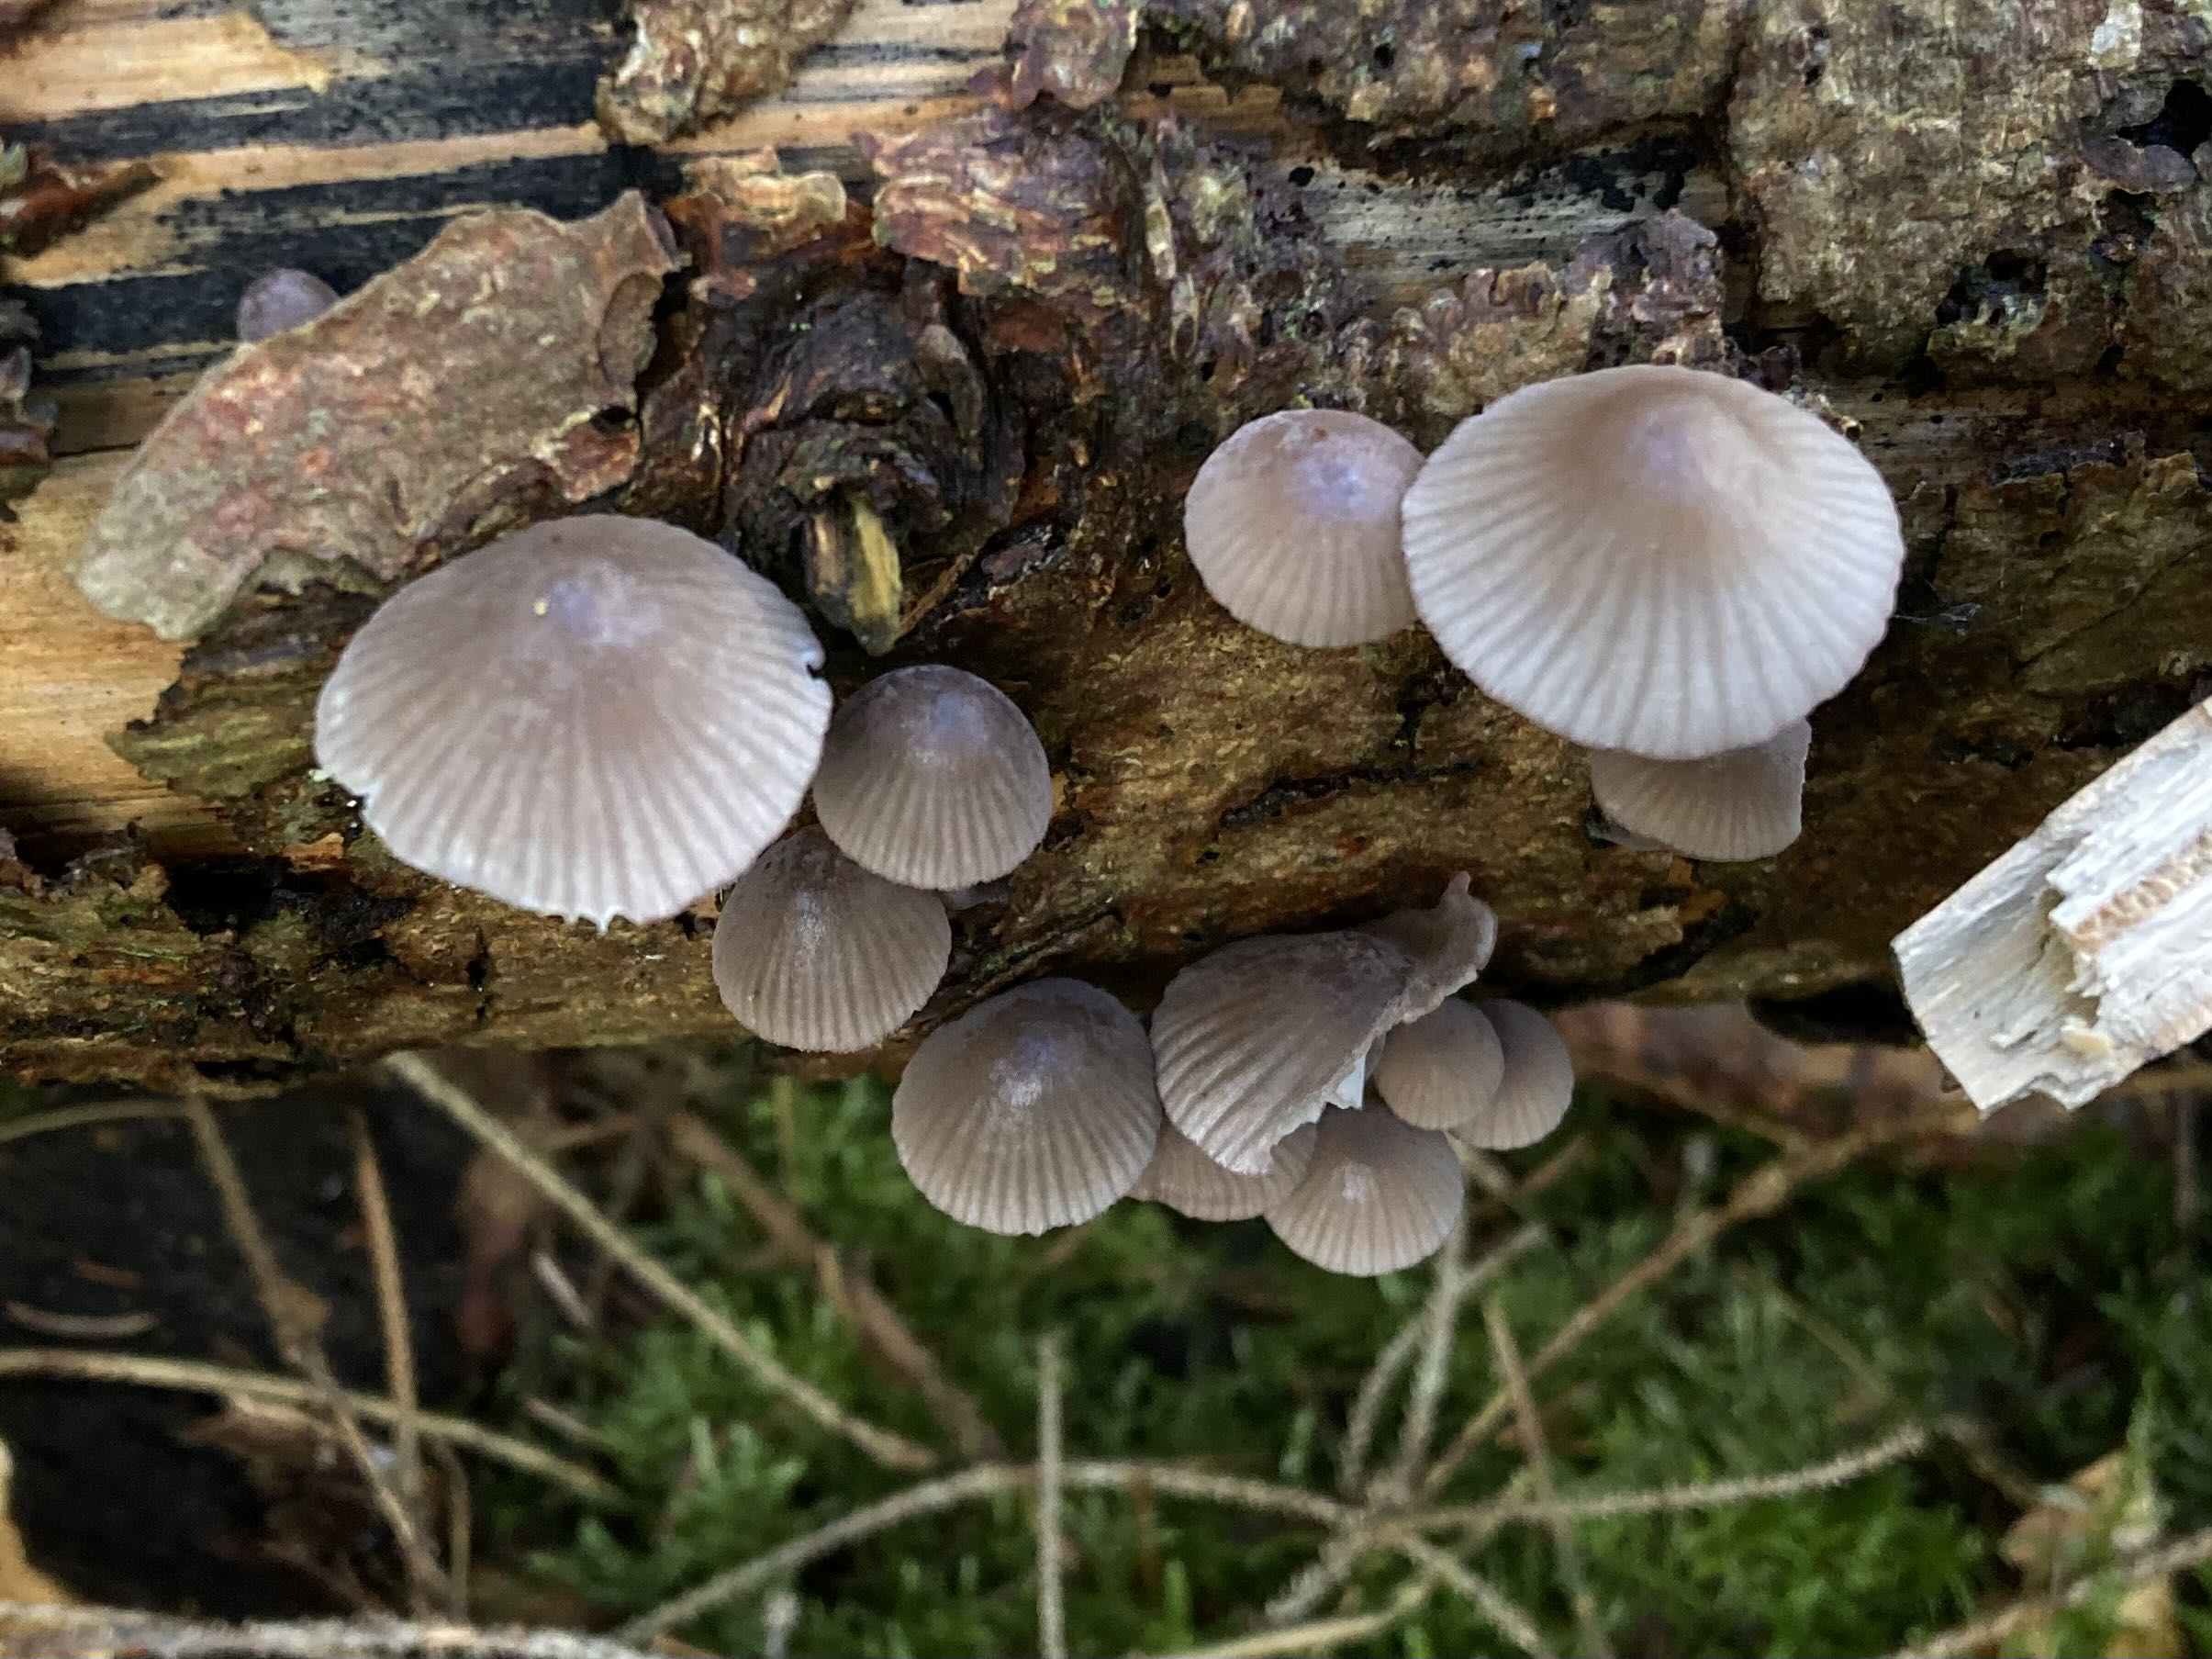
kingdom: Fungi
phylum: Basidiomycota
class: Agaricomycetes
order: Agaricales
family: Mycenaceae
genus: Mycena
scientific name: Mycena rubromarginata
